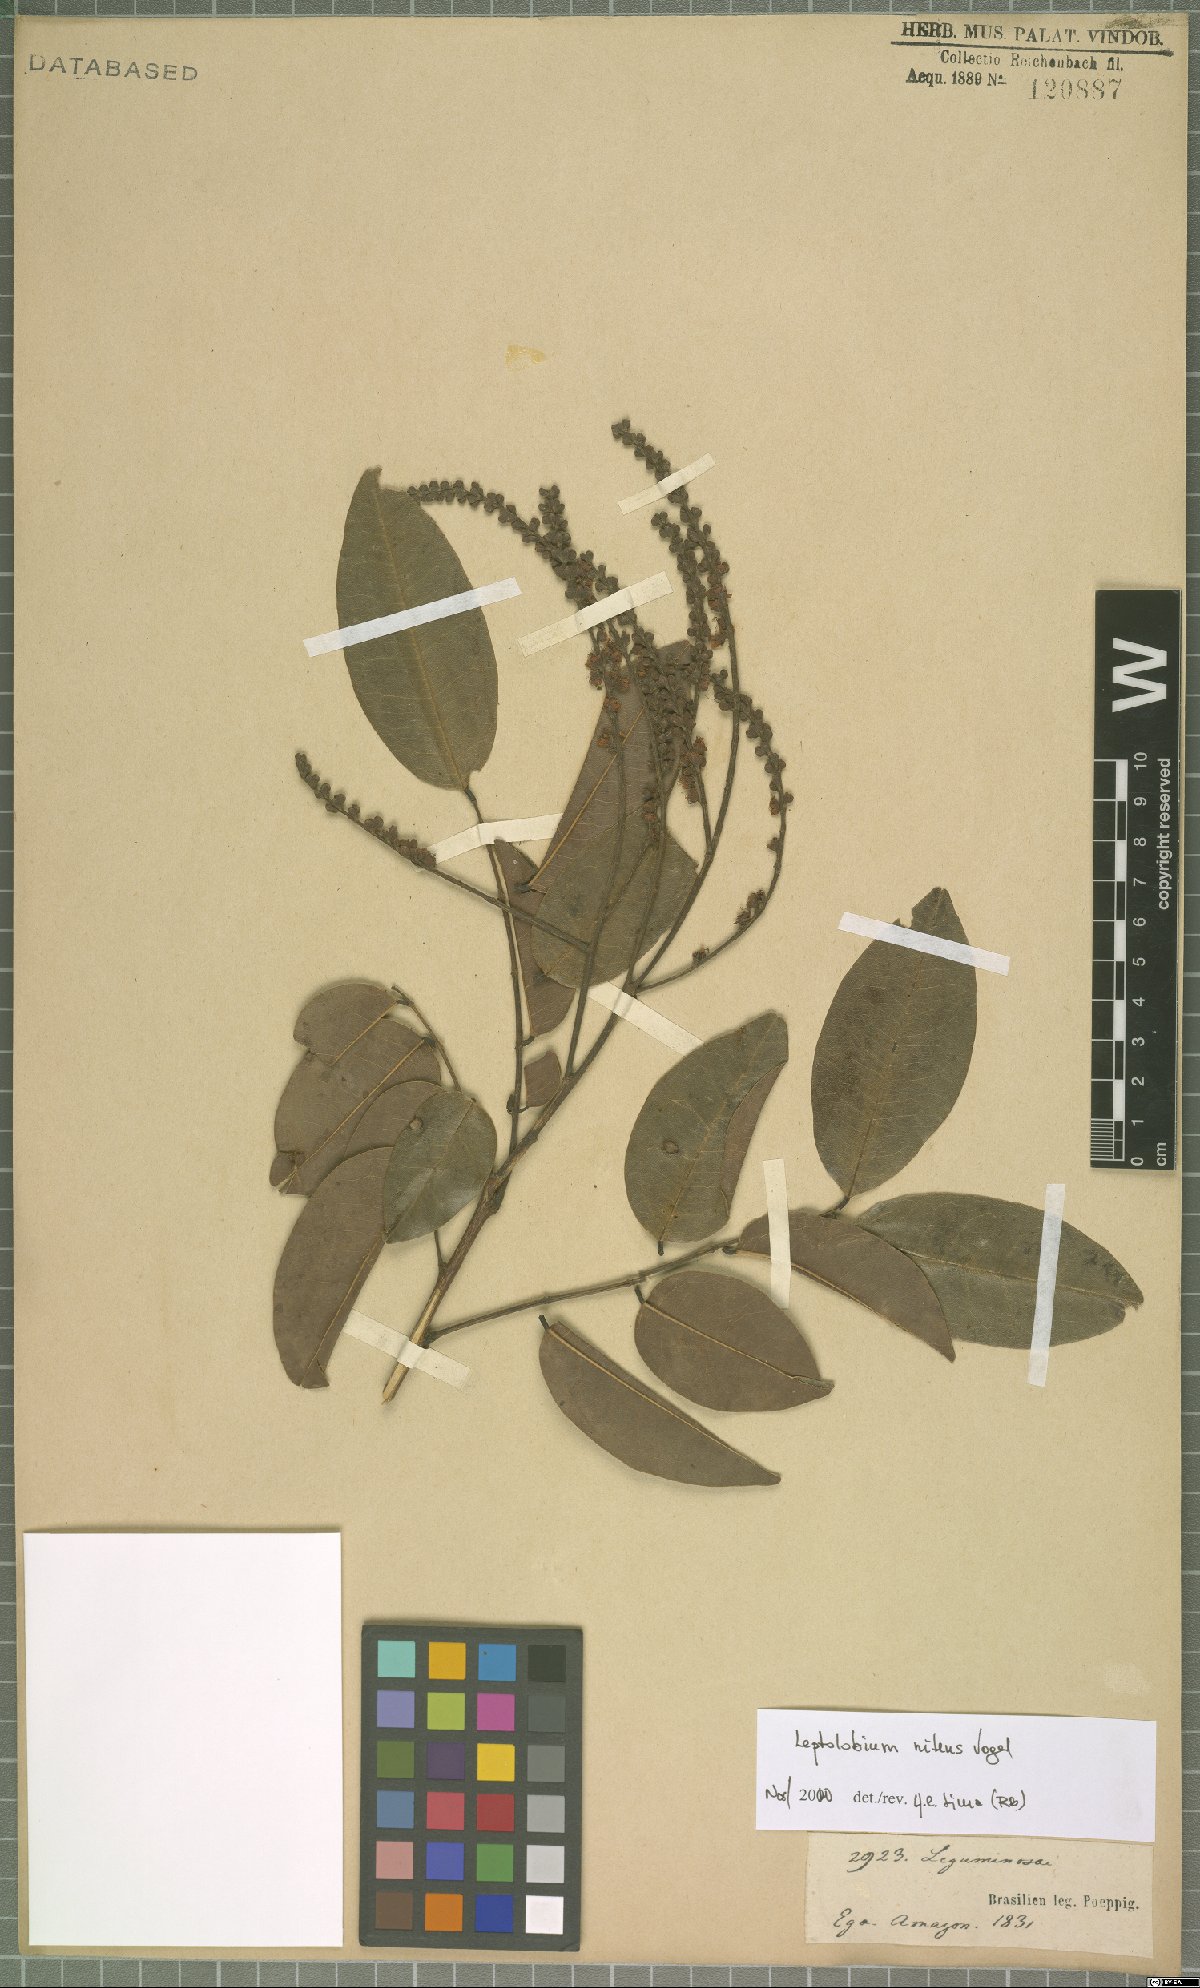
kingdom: Plantae
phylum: Tracheophyta
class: Magnoliopsida
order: Fabales
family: Fabaceae
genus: Leptolobium
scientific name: Leptolobium nitens
